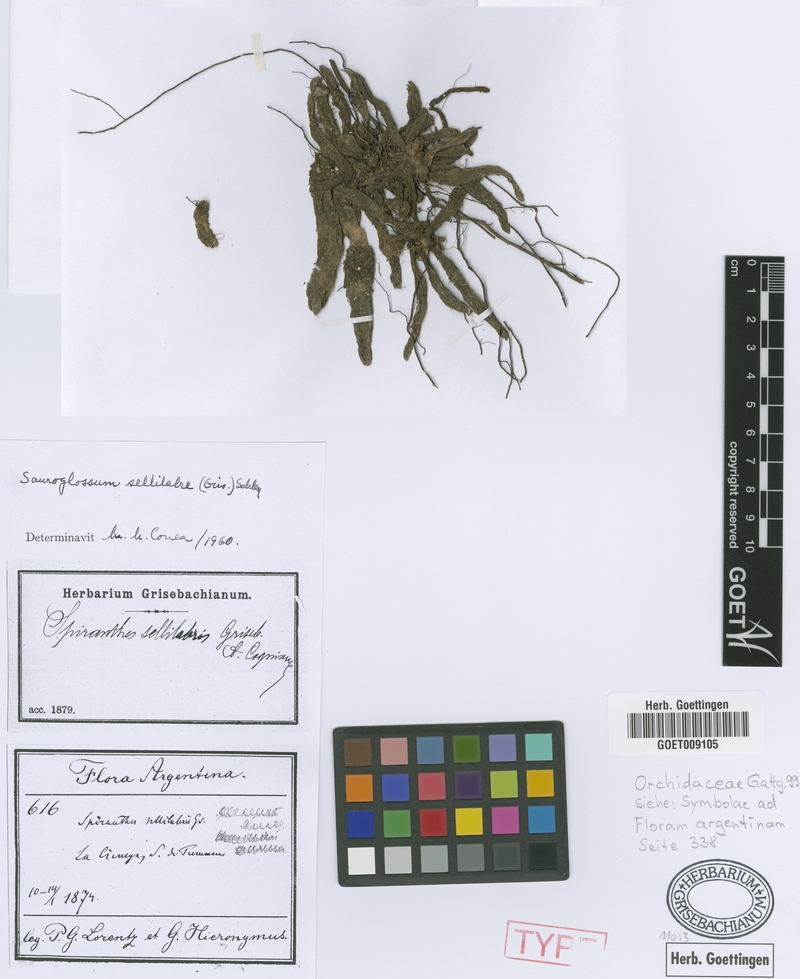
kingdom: Plantae
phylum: Tracheophyta
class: Liliopsida
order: Asparagales
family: Orchidaceae
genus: Sauroglossum
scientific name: Sauroglossum sellilabre
